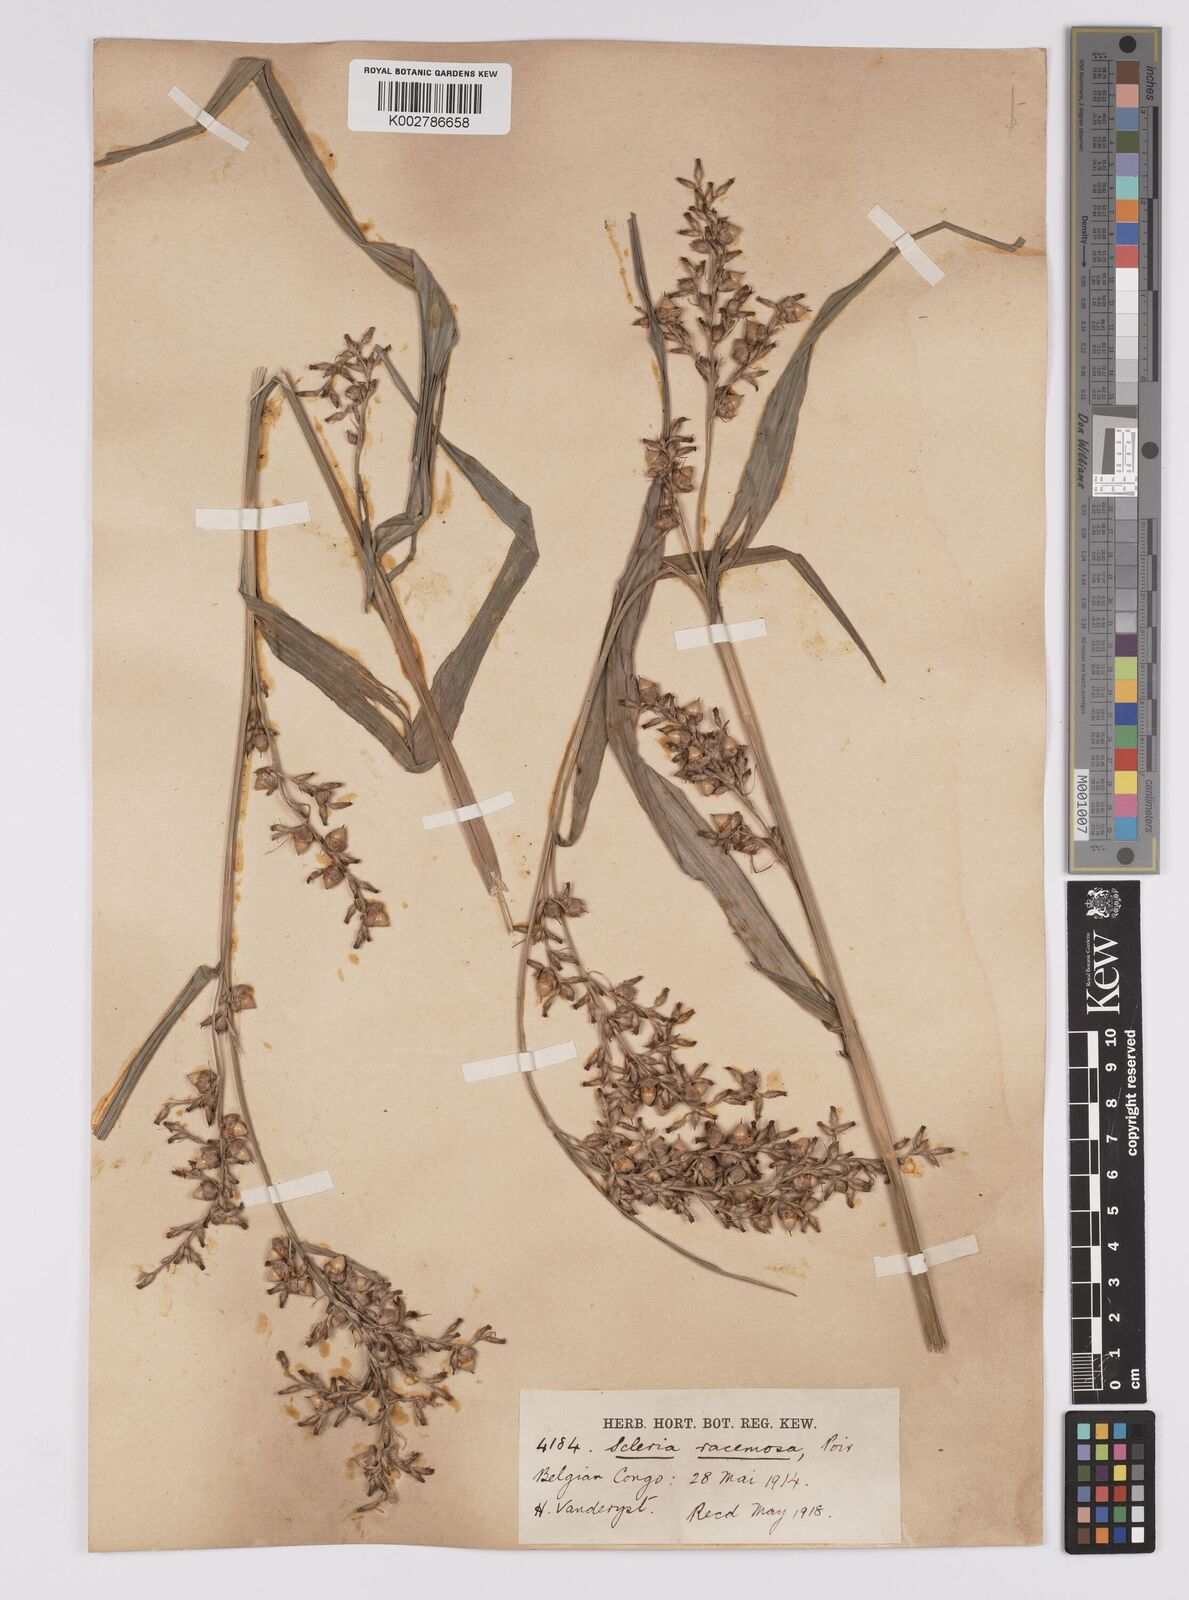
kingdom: Plantae
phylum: Tracheophyta
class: Liliopsida
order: Poales
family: Cyperaceae
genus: Scleria
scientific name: Scleria racemosa
